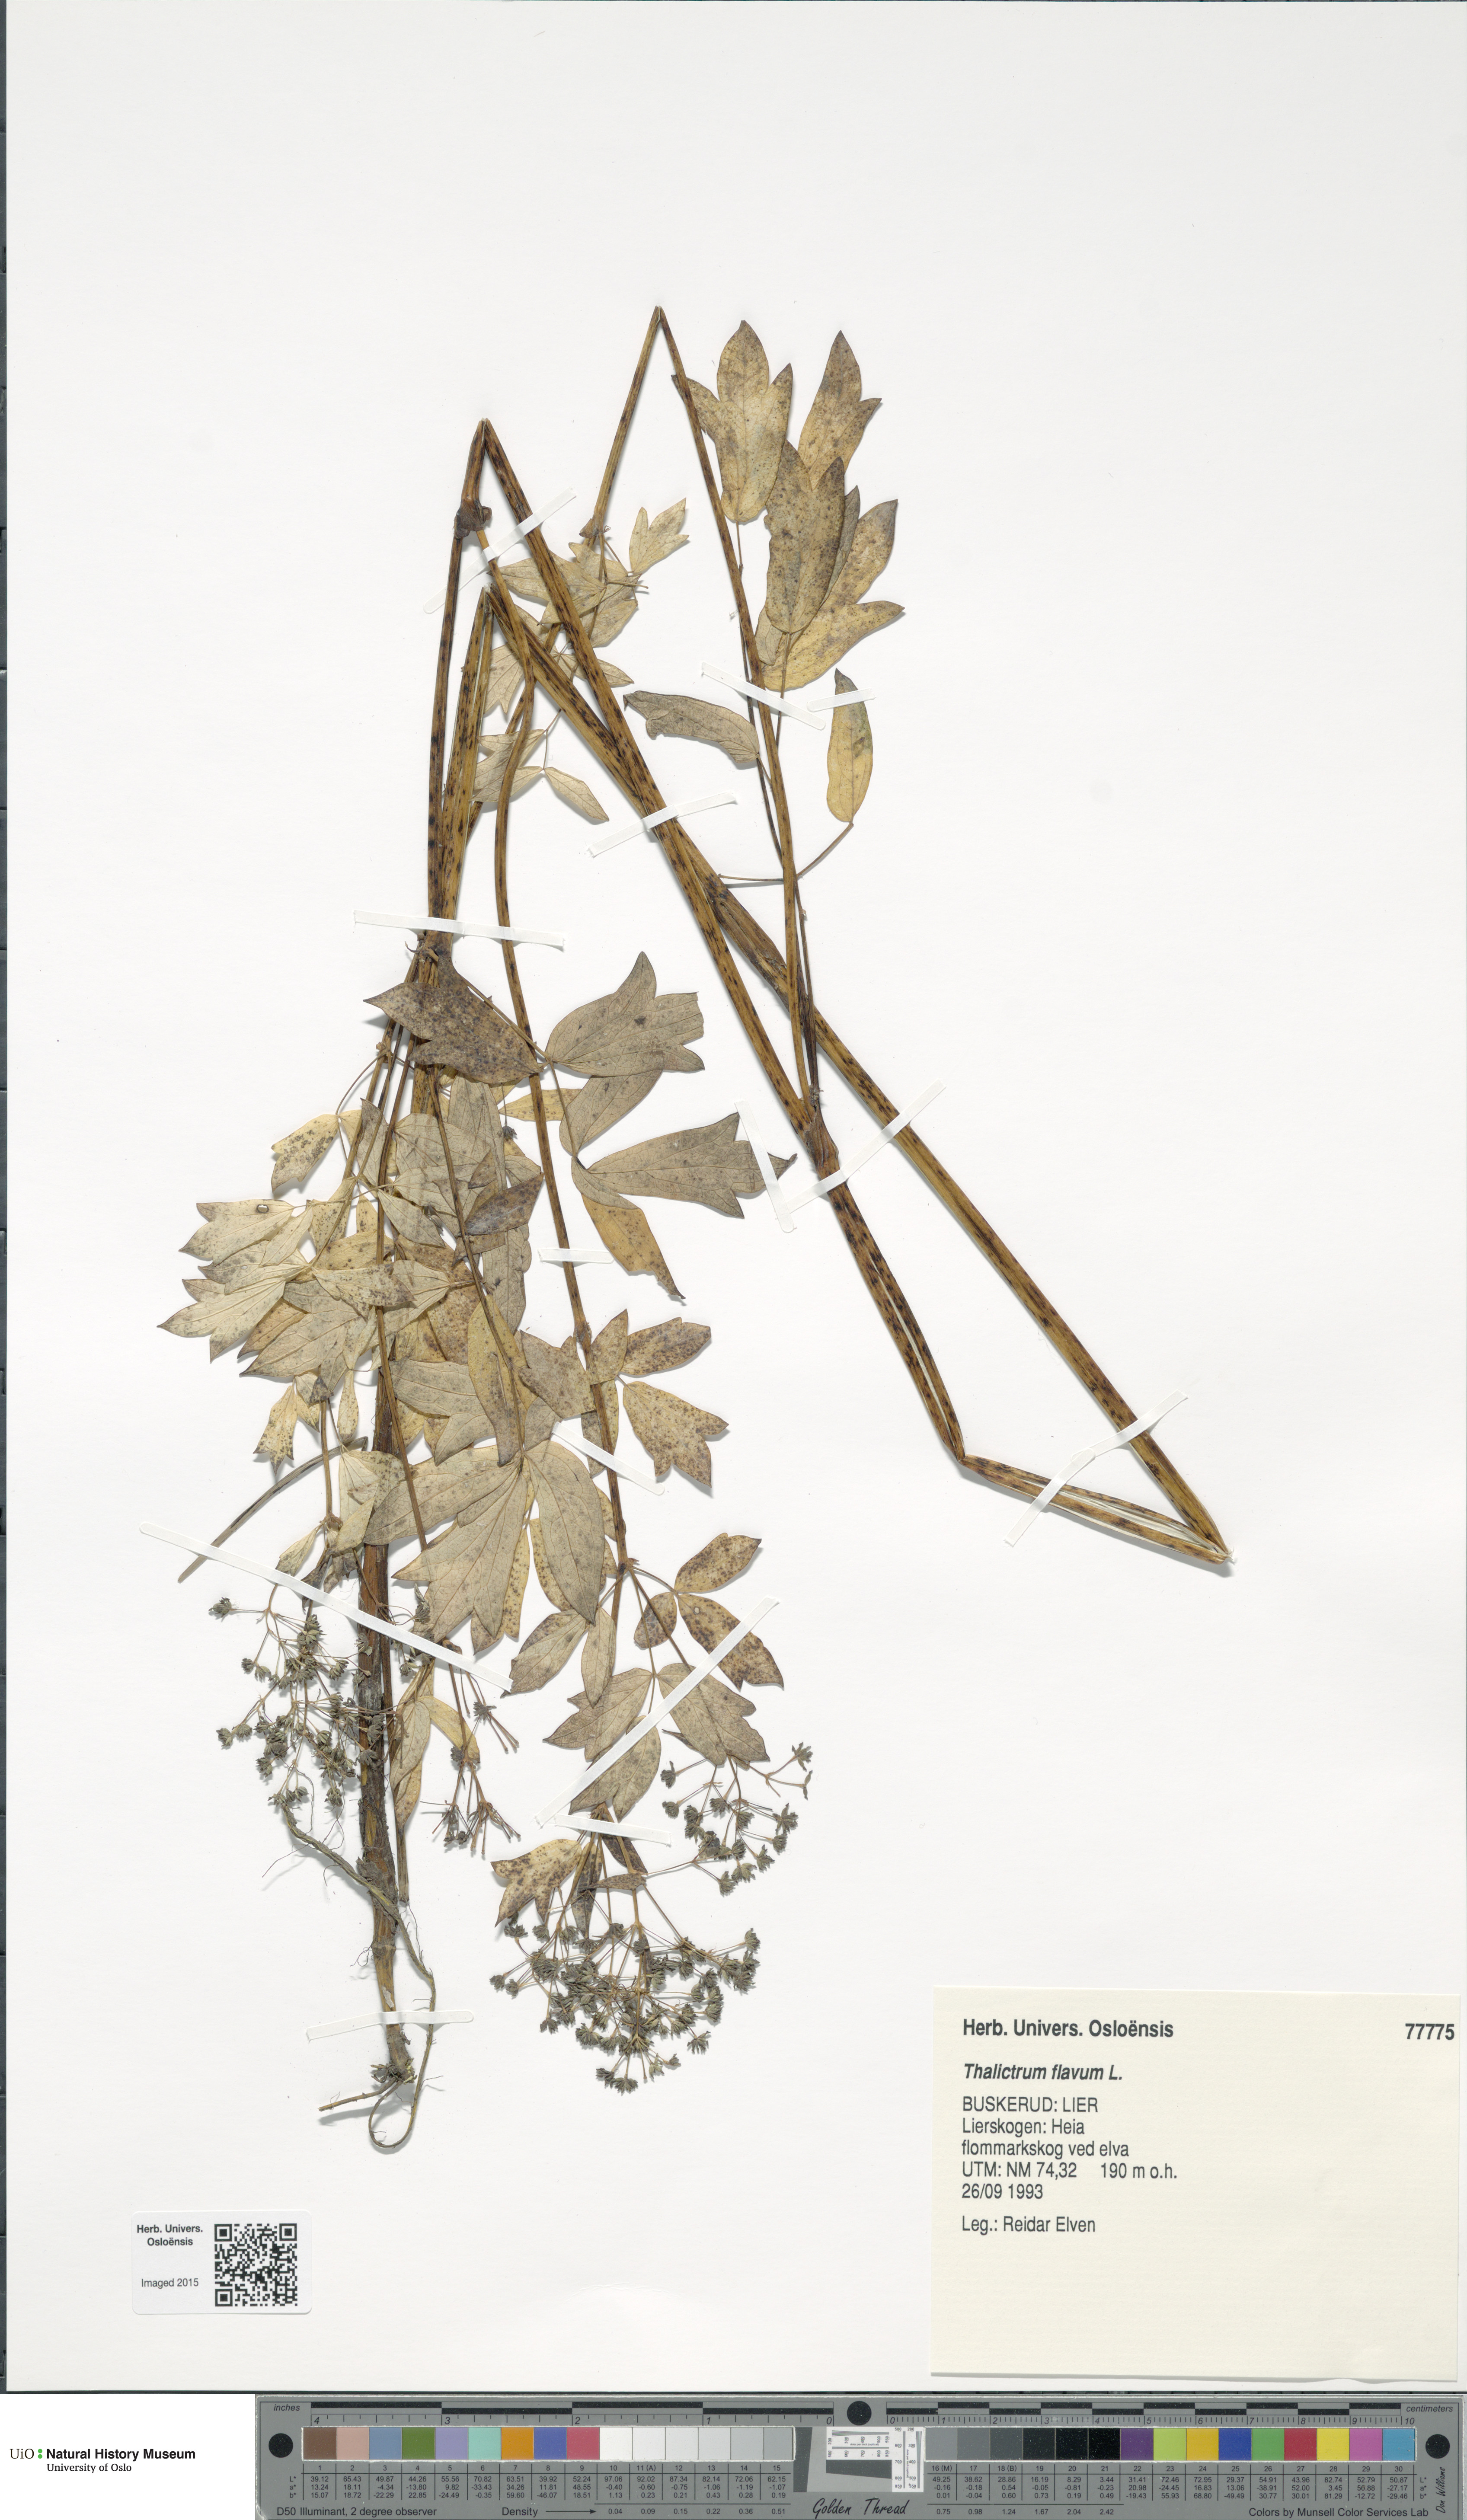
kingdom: Plantae
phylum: Tracheophyta
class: Magnoliopsida
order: Ranunculales
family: Ranunculaceae
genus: Thalictrum
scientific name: Thalictrum flavum
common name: Common meadow-rue
